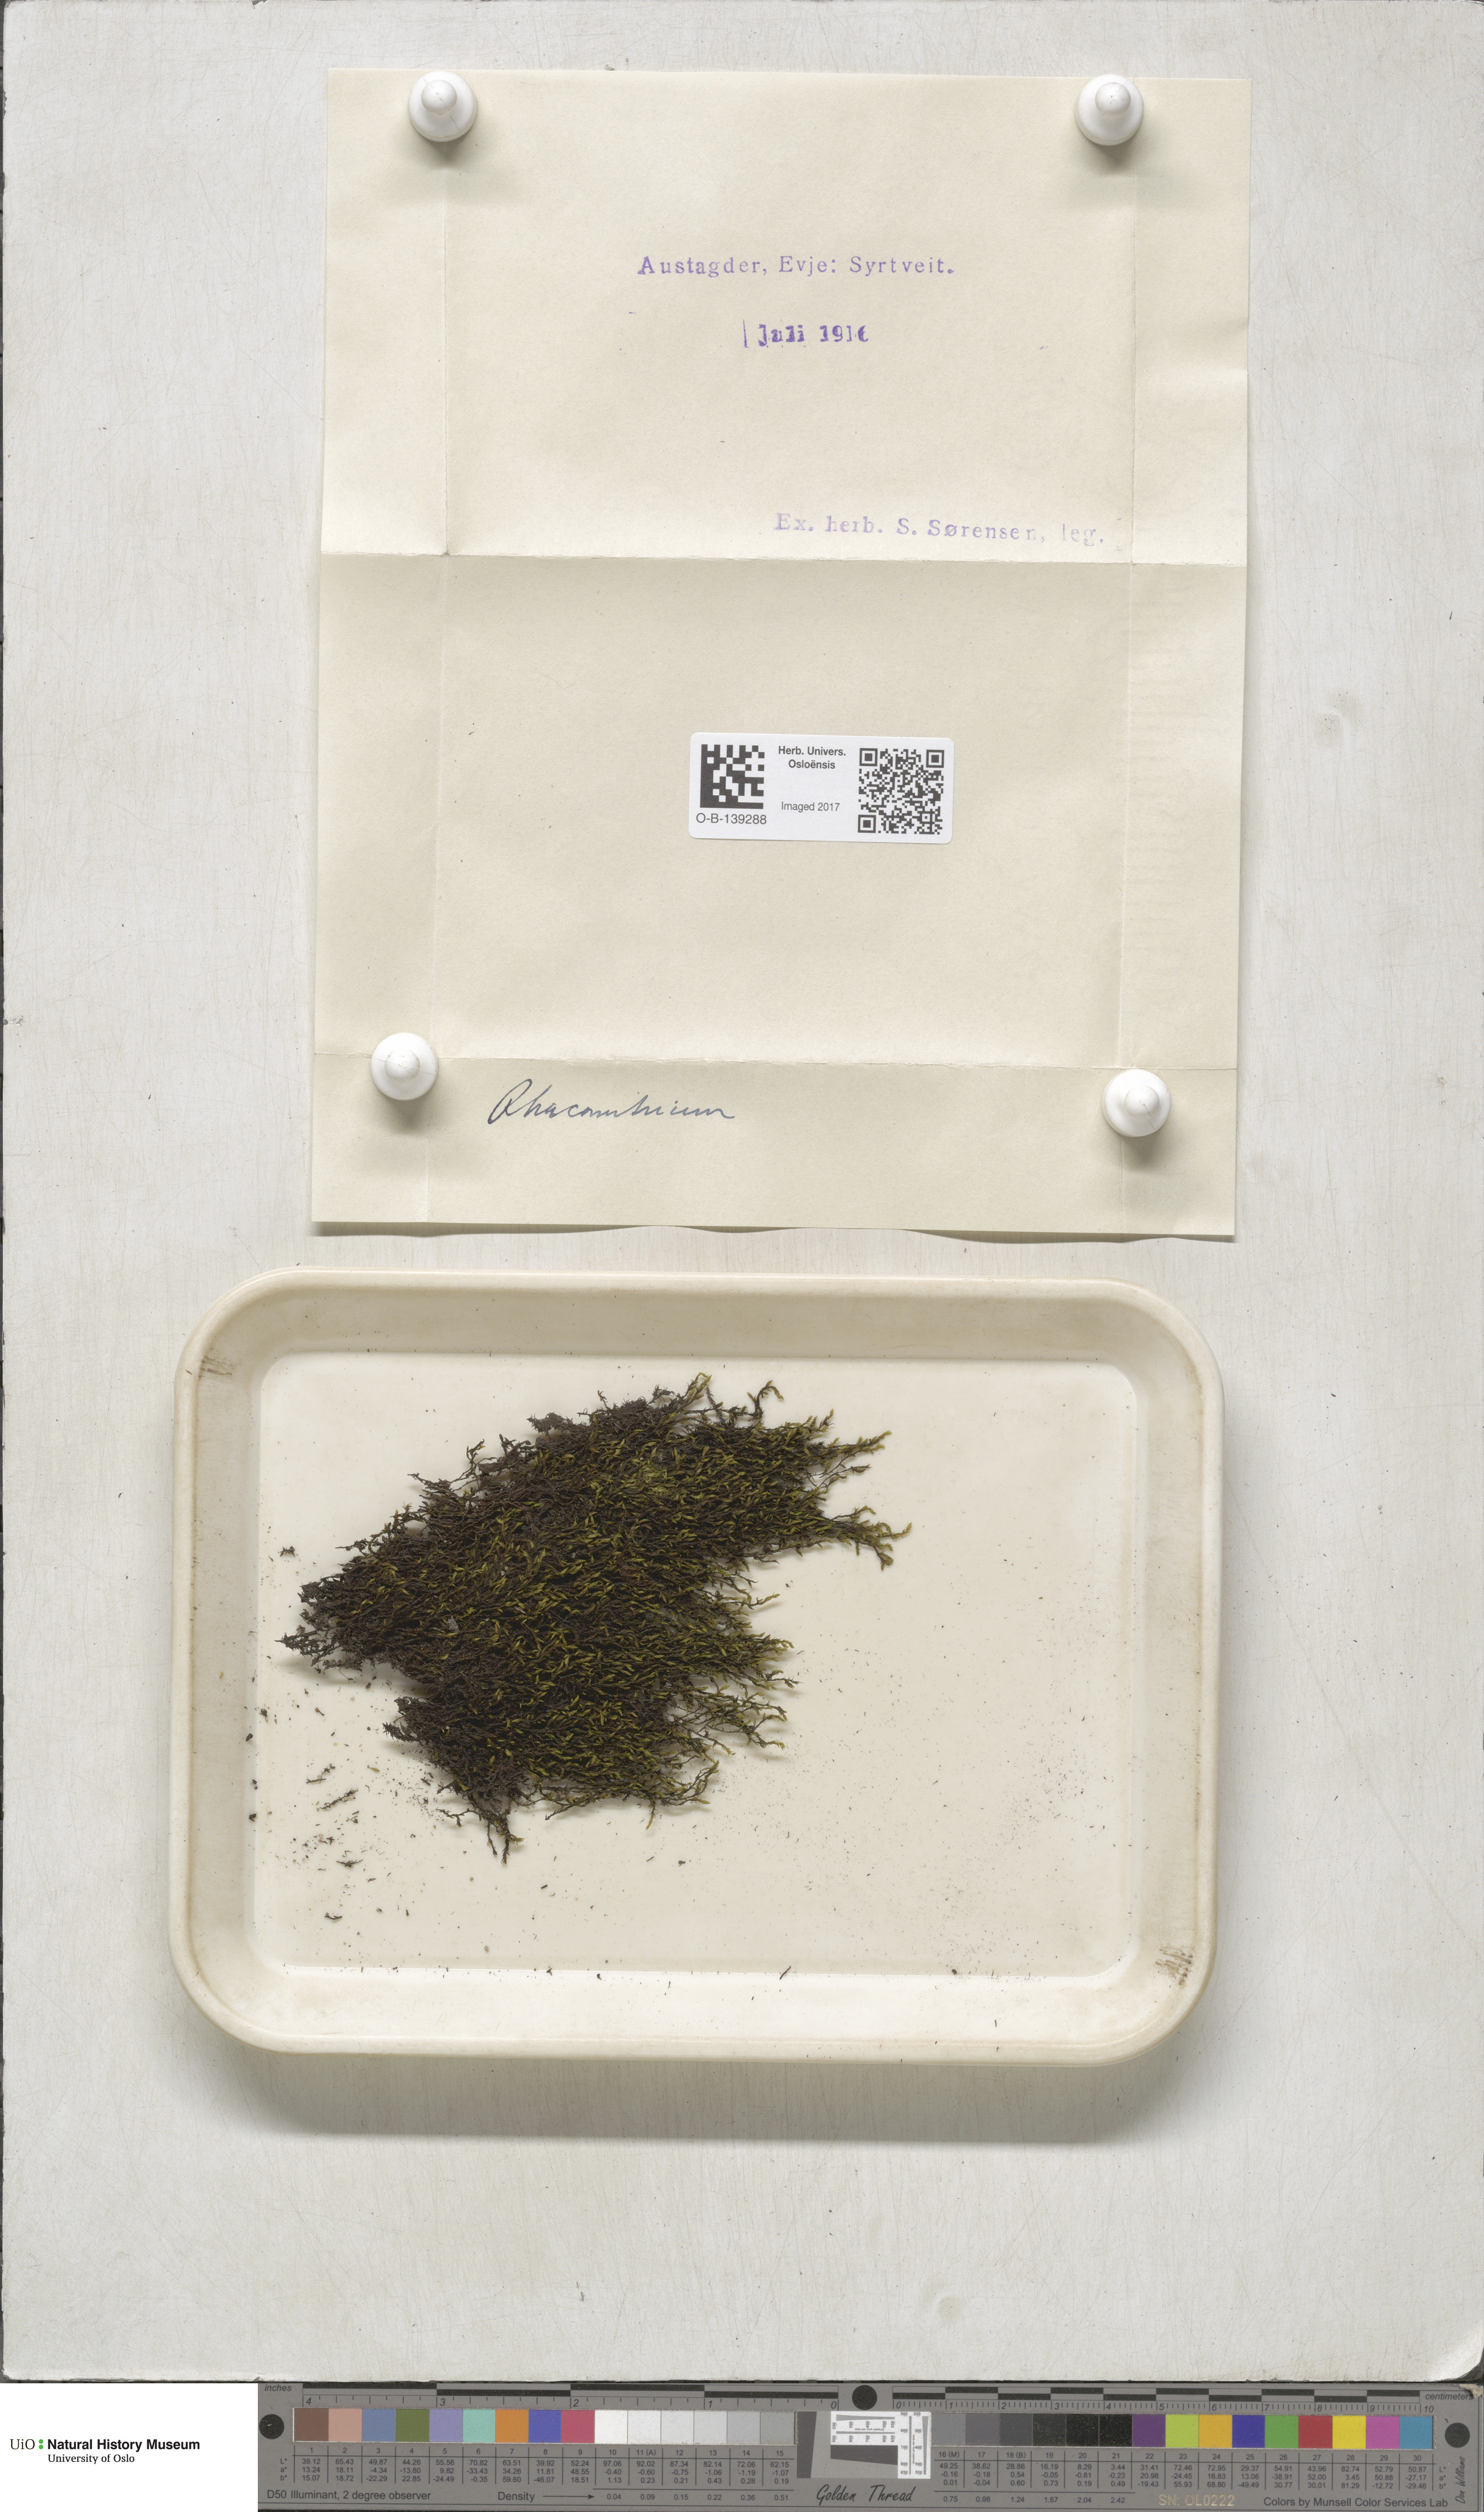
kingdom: Plantae
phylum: Bryophyta
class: Bryopsida
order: Grimmiales
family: Grimmiaceae
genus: Racomitrium
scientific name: Racomitrium
